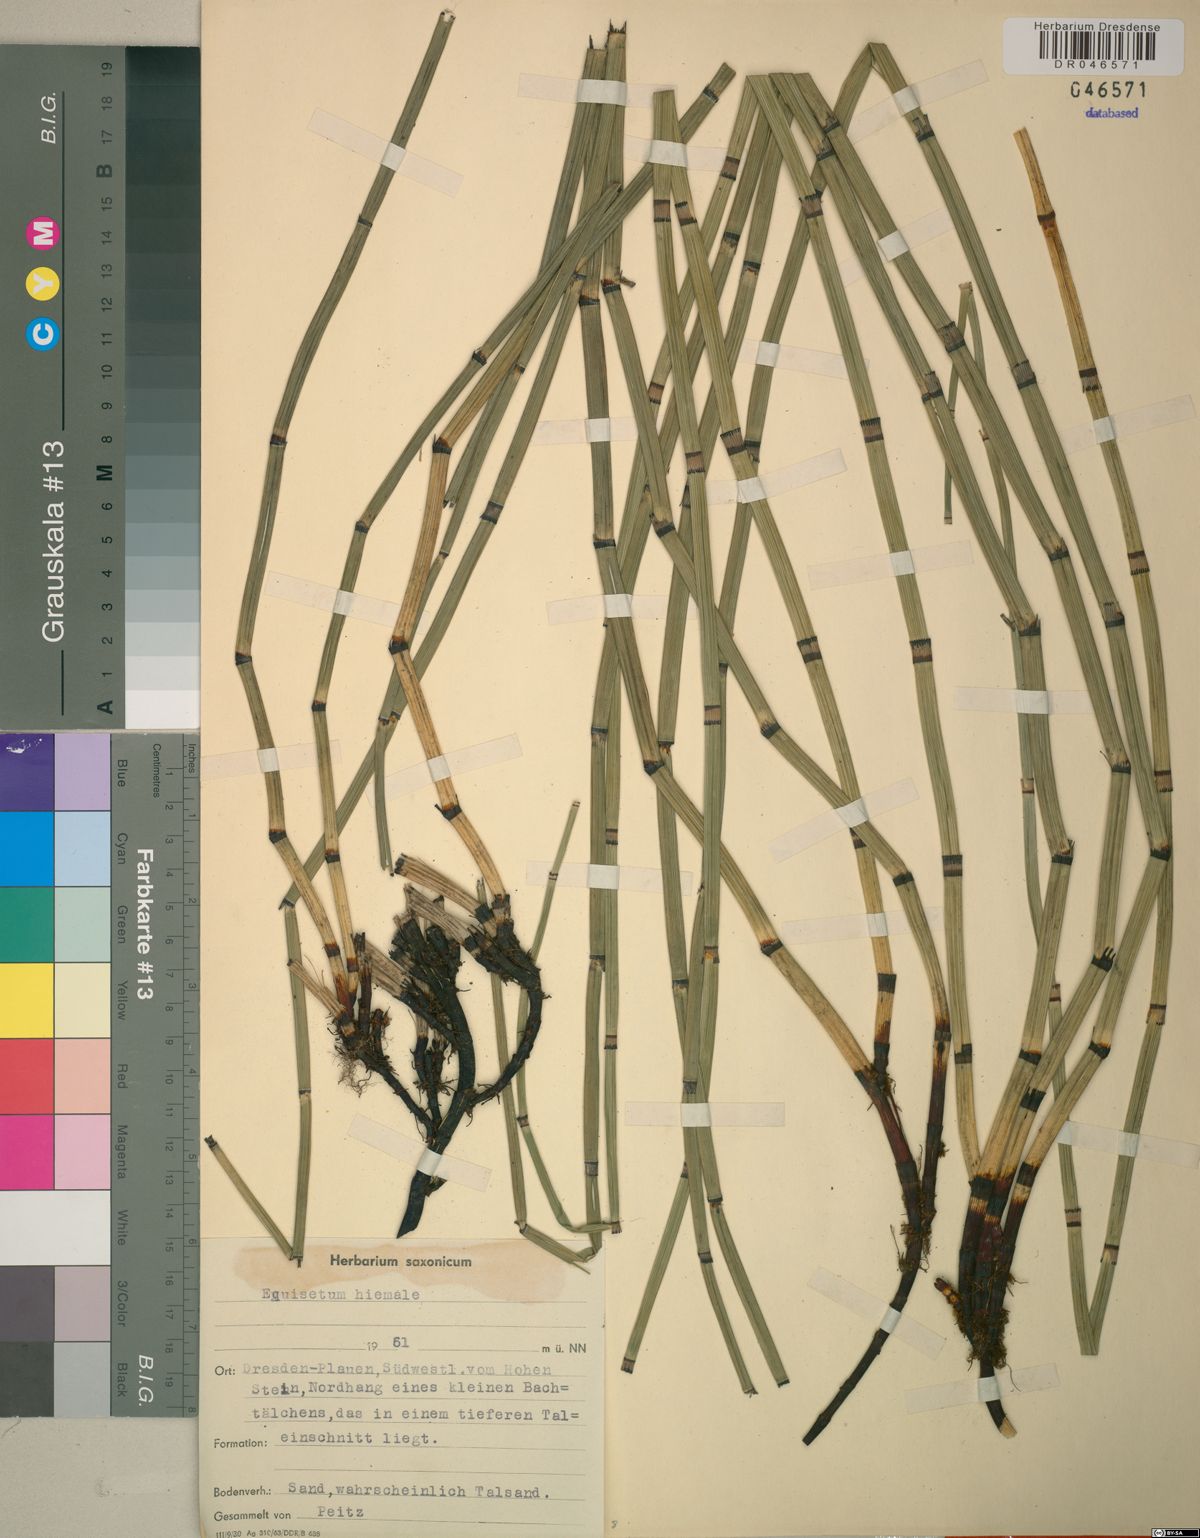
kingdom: Plantae
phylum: Tracheophyta
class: Polypodiopsida
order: Equisetales
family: Equisetaceae
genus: Equisetum
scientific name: Equisetum hyemale
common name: Rough horsetail
